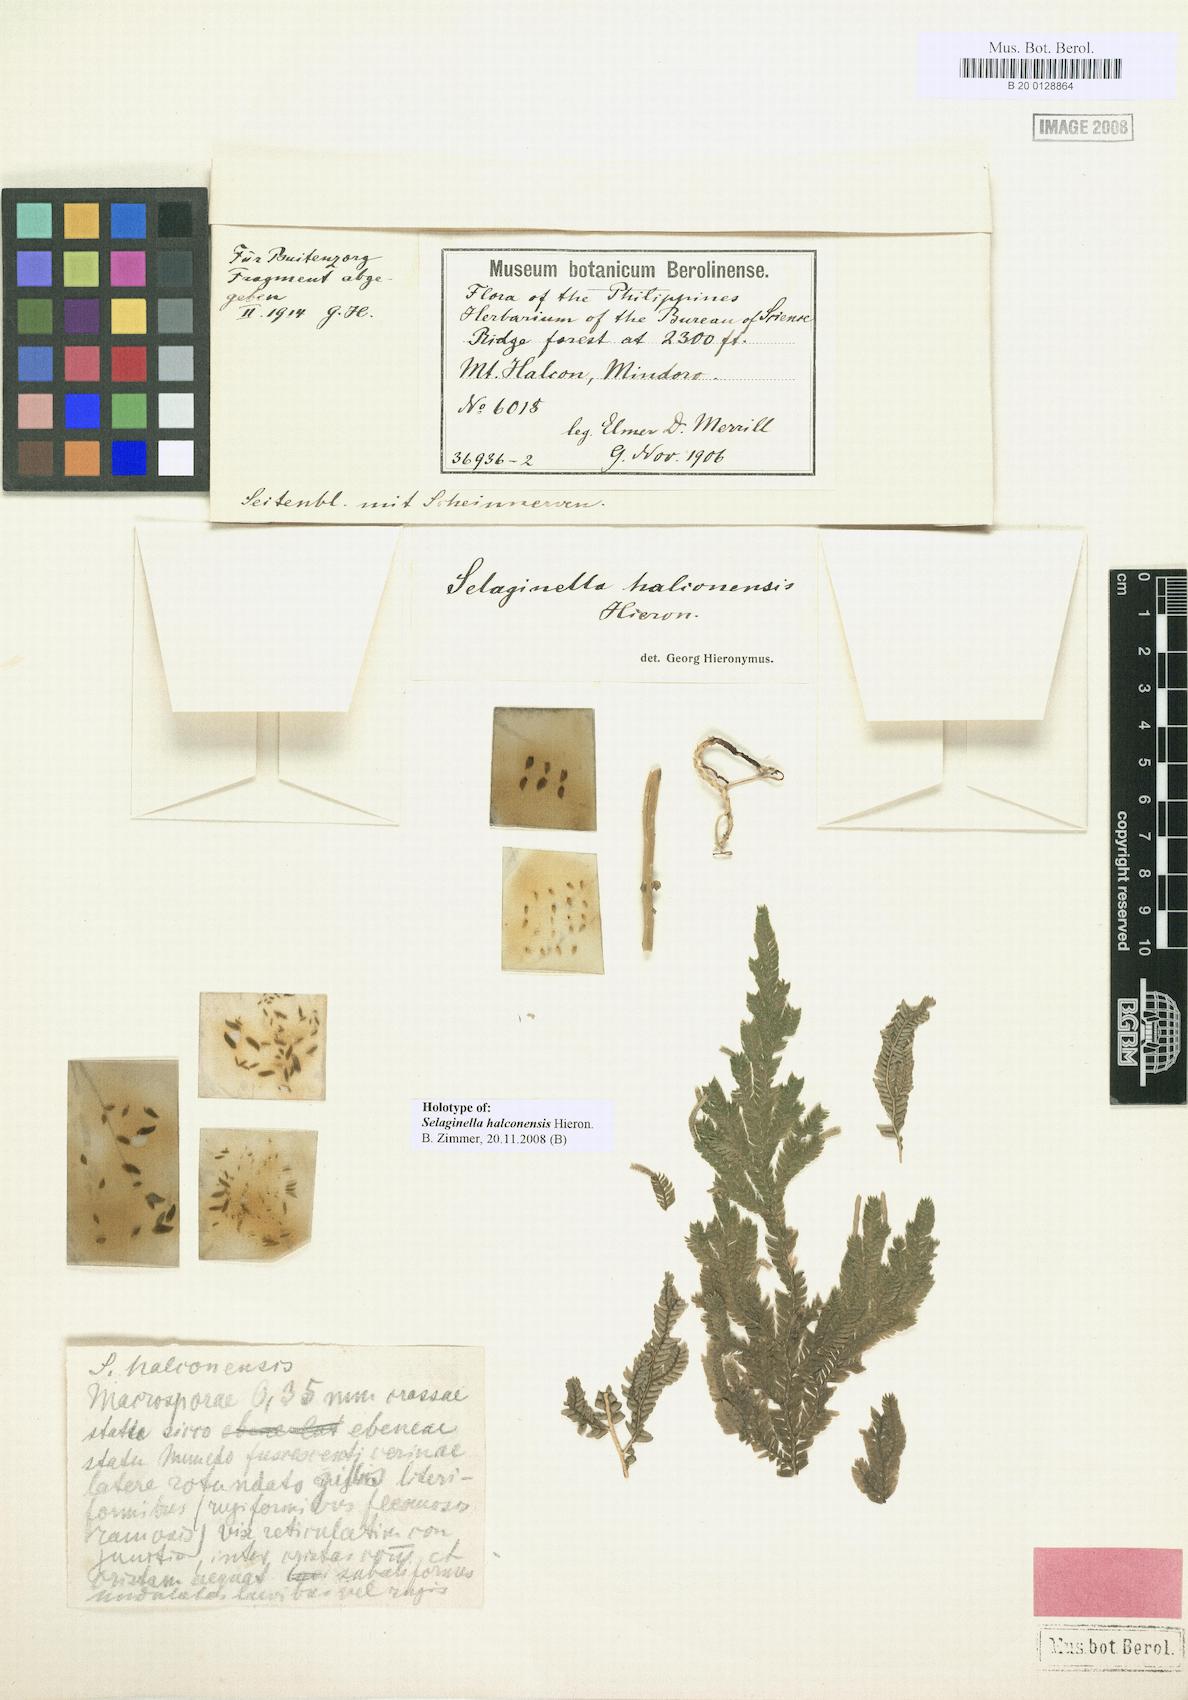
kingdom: Plantae
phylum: Tracheophyta
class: Lycopodiopsida
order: Selaginellales
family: Selaginellaceae
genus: Selaginella
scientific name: Selaginella jagorii
